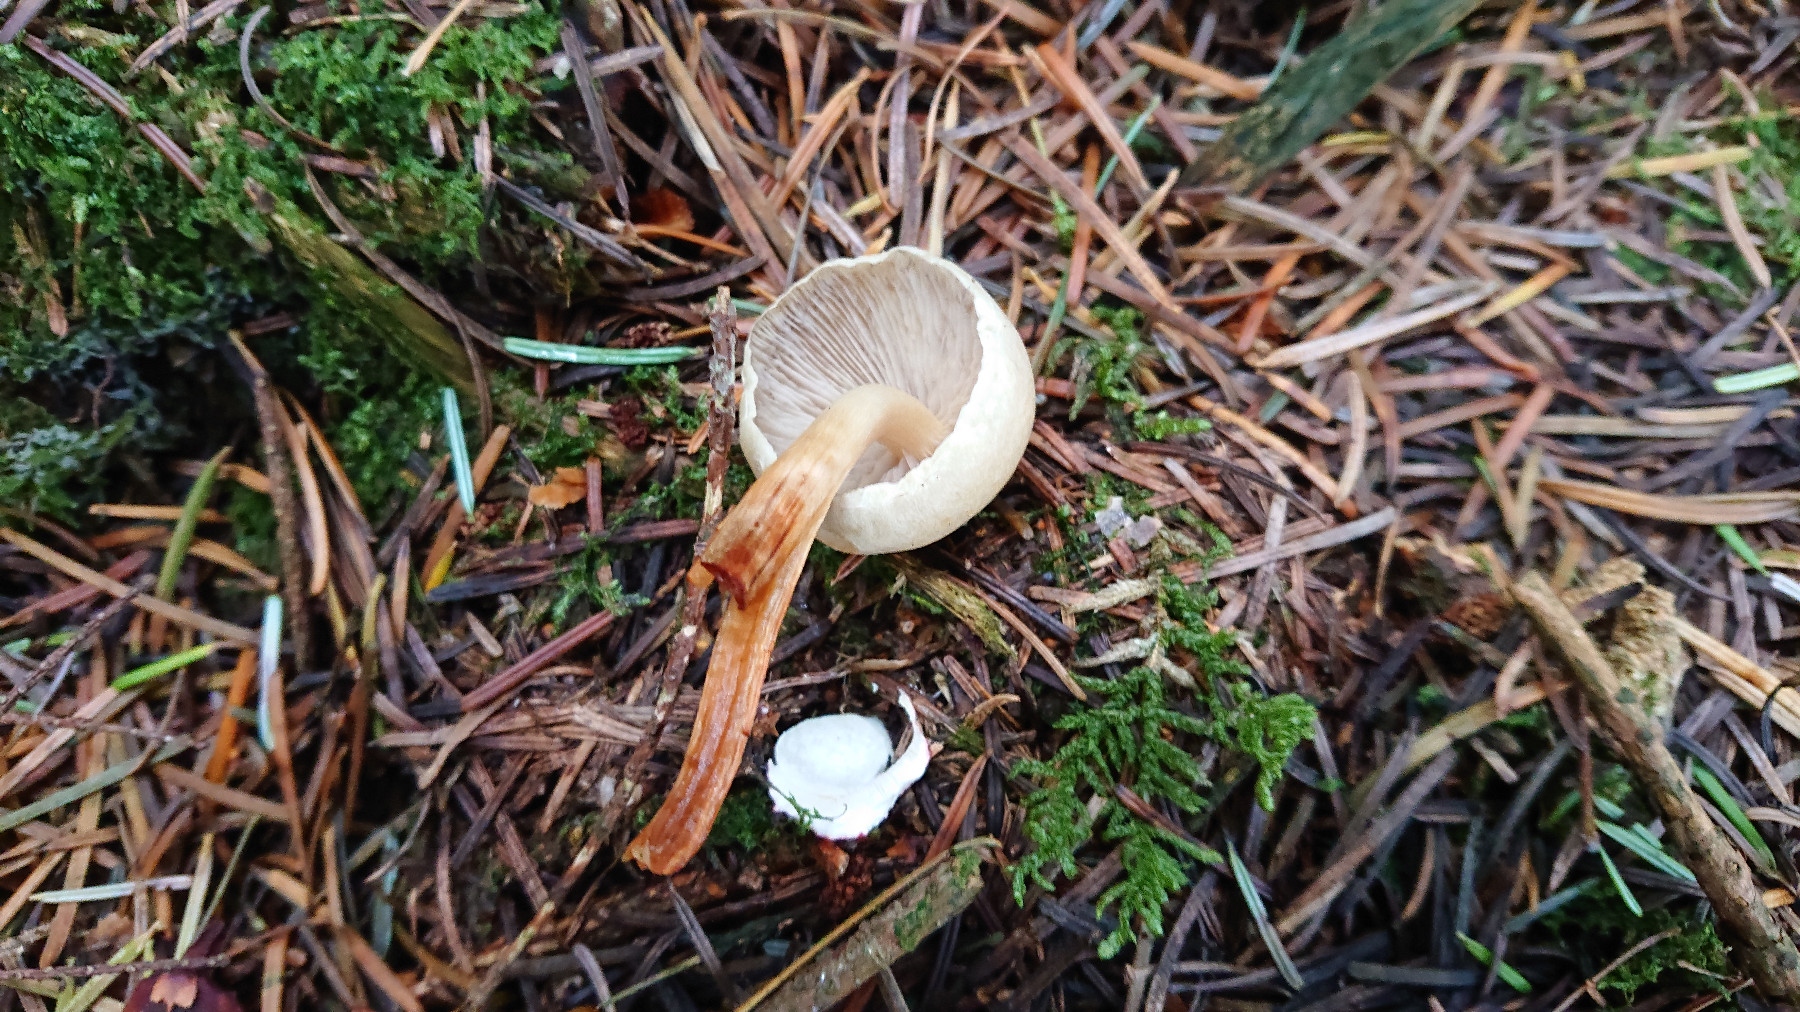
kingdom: Fungi
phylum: Basidiomycota
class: Agaricomycetes
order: Agaricales
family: Strophariaceae
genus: Hypholoma
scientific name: Hypholoma capnoides
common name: gran-svovlhat
